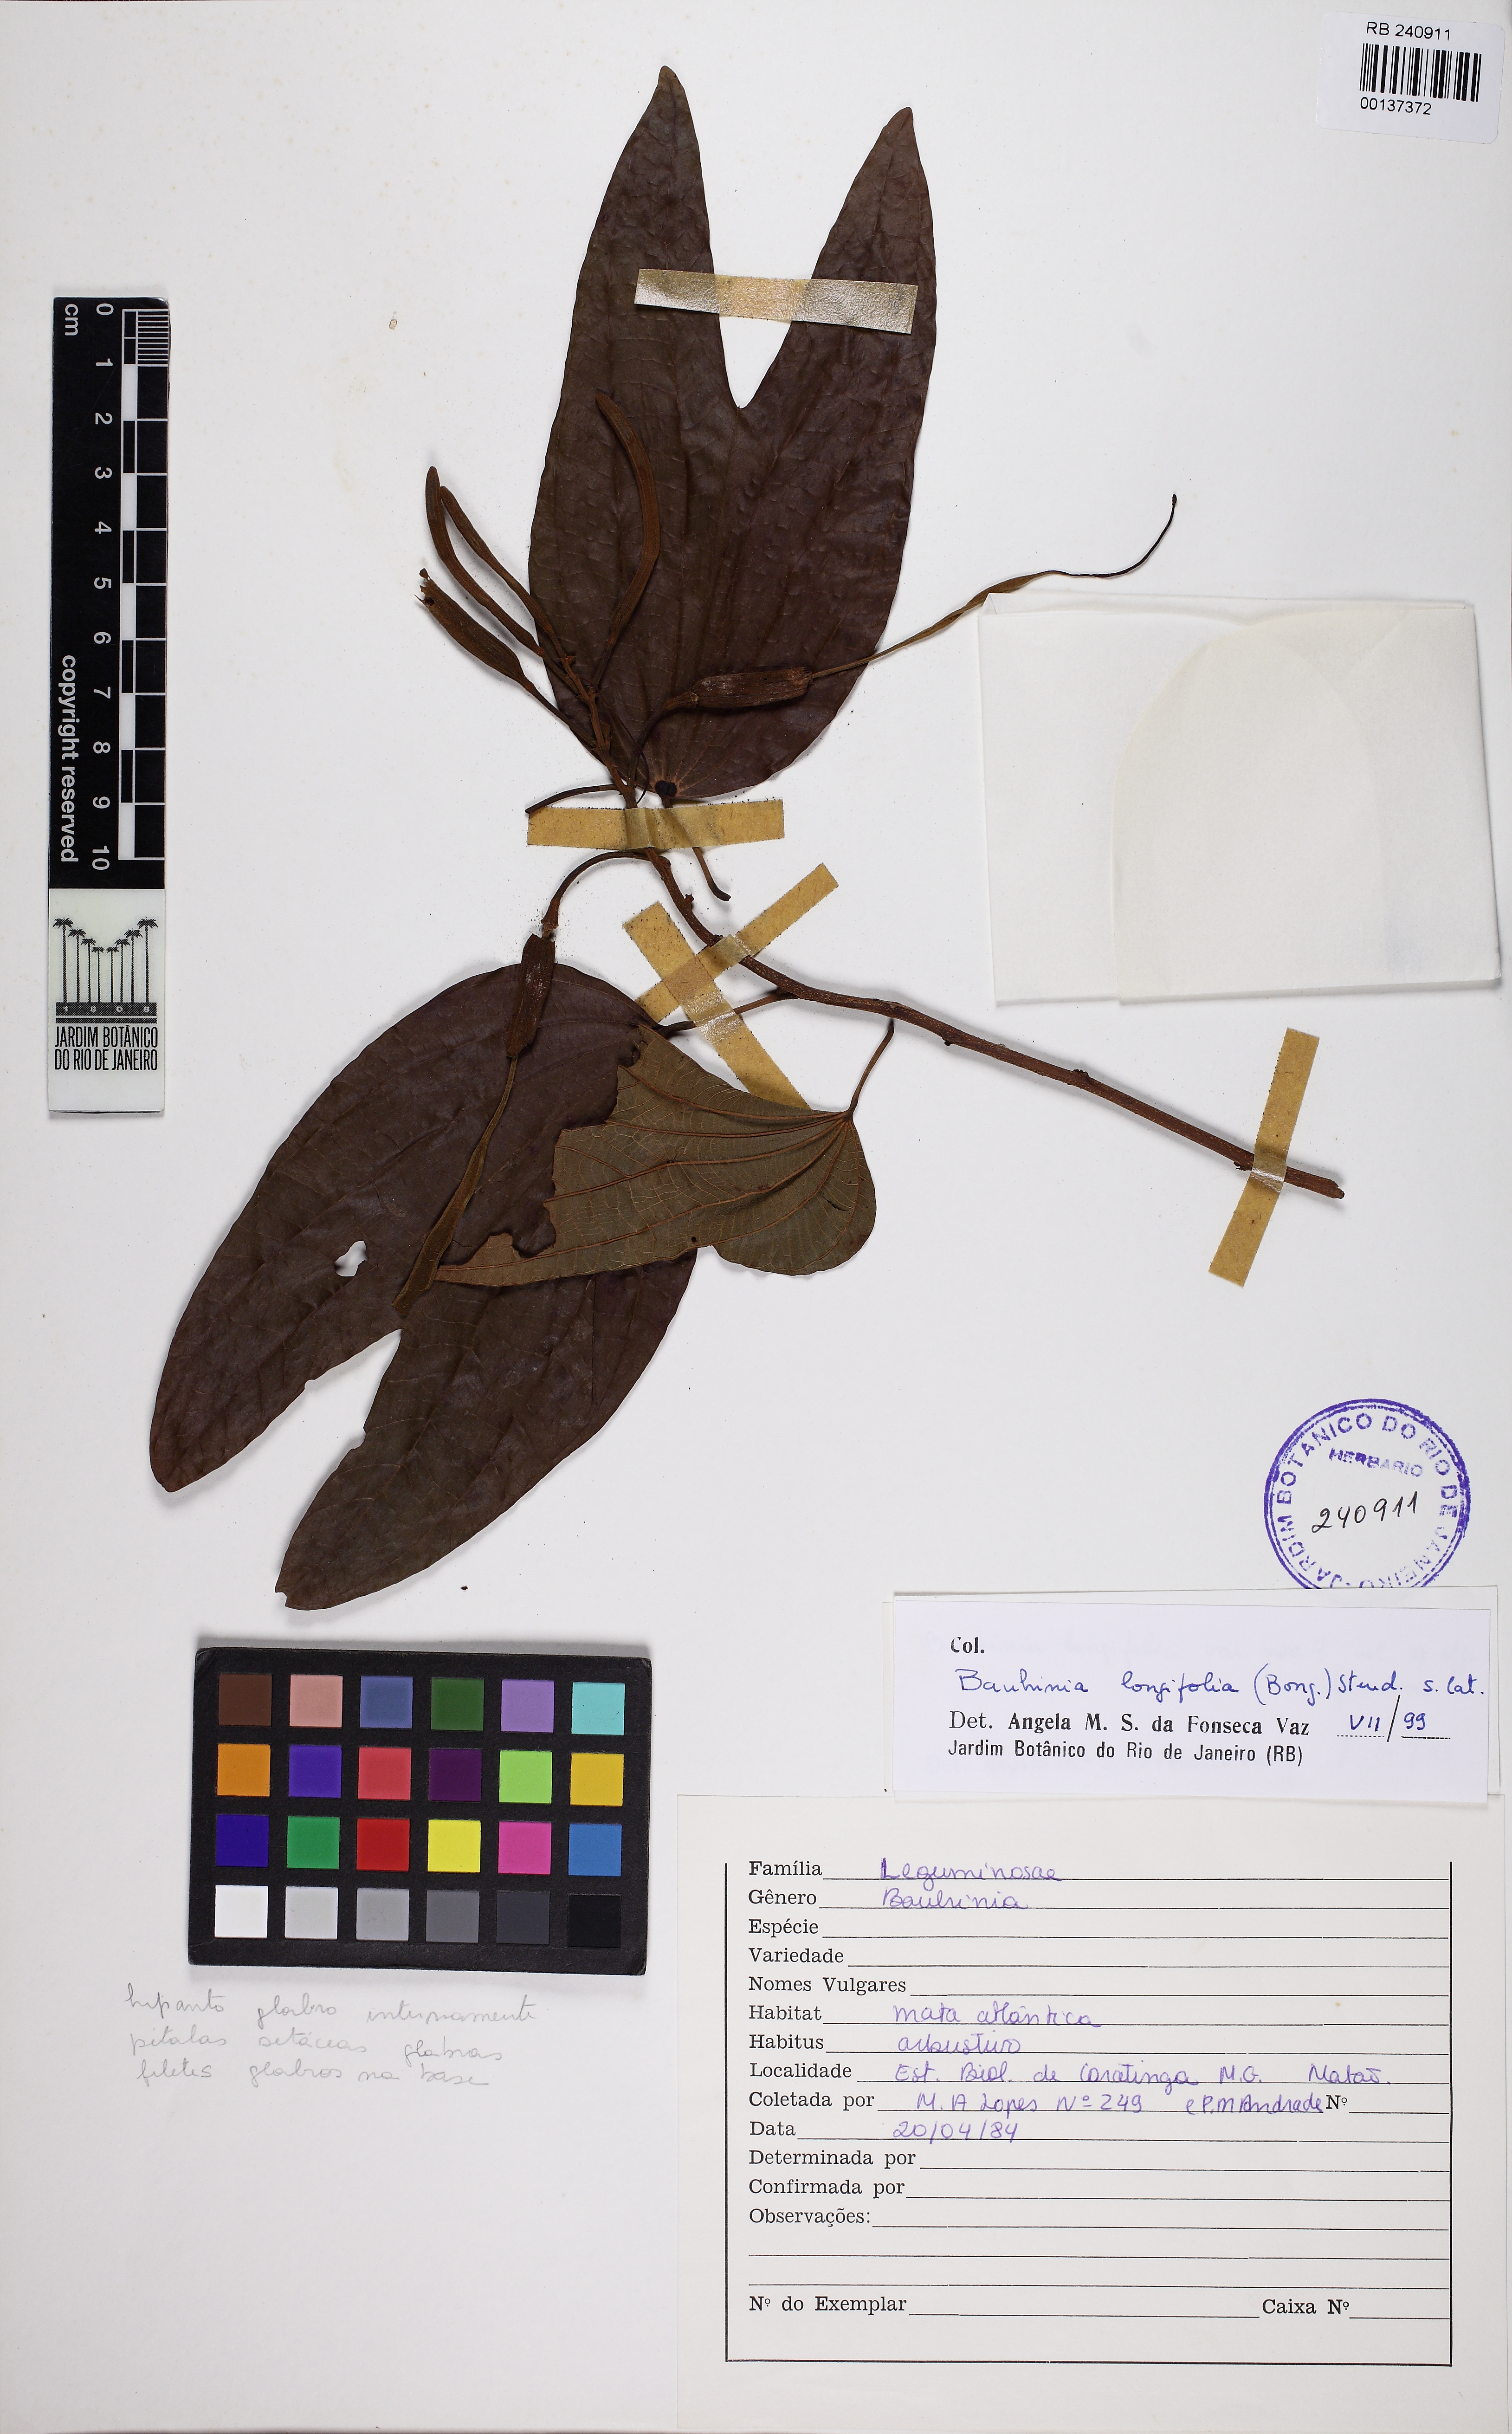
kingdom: Plantae
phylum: Tracheophyta
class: Magnoliopsida
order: Fabales
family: Fabaceae
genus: Bauhinia
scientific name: Bauhinia pauletia
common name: Railway-fence bauhinia
